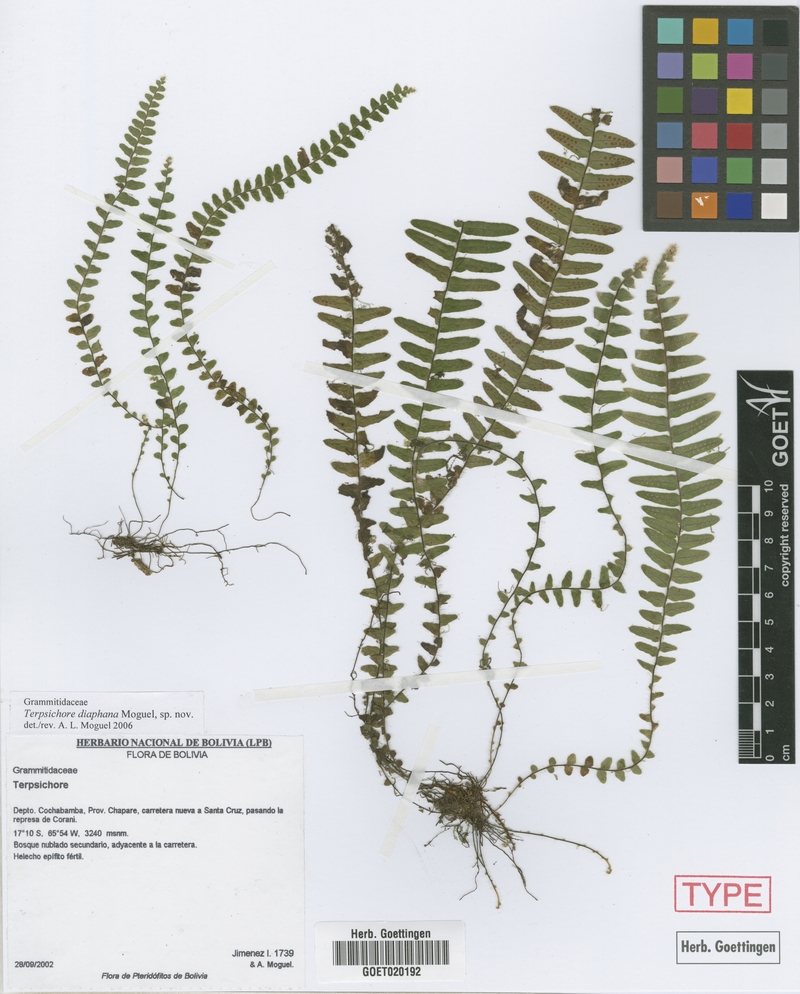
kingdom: Plantae
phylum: Tracheophyta
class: Polypodiopsida
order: Polypodiales
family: Polypodiaceae
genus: Alansmia
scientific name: Alansmia diaphana
